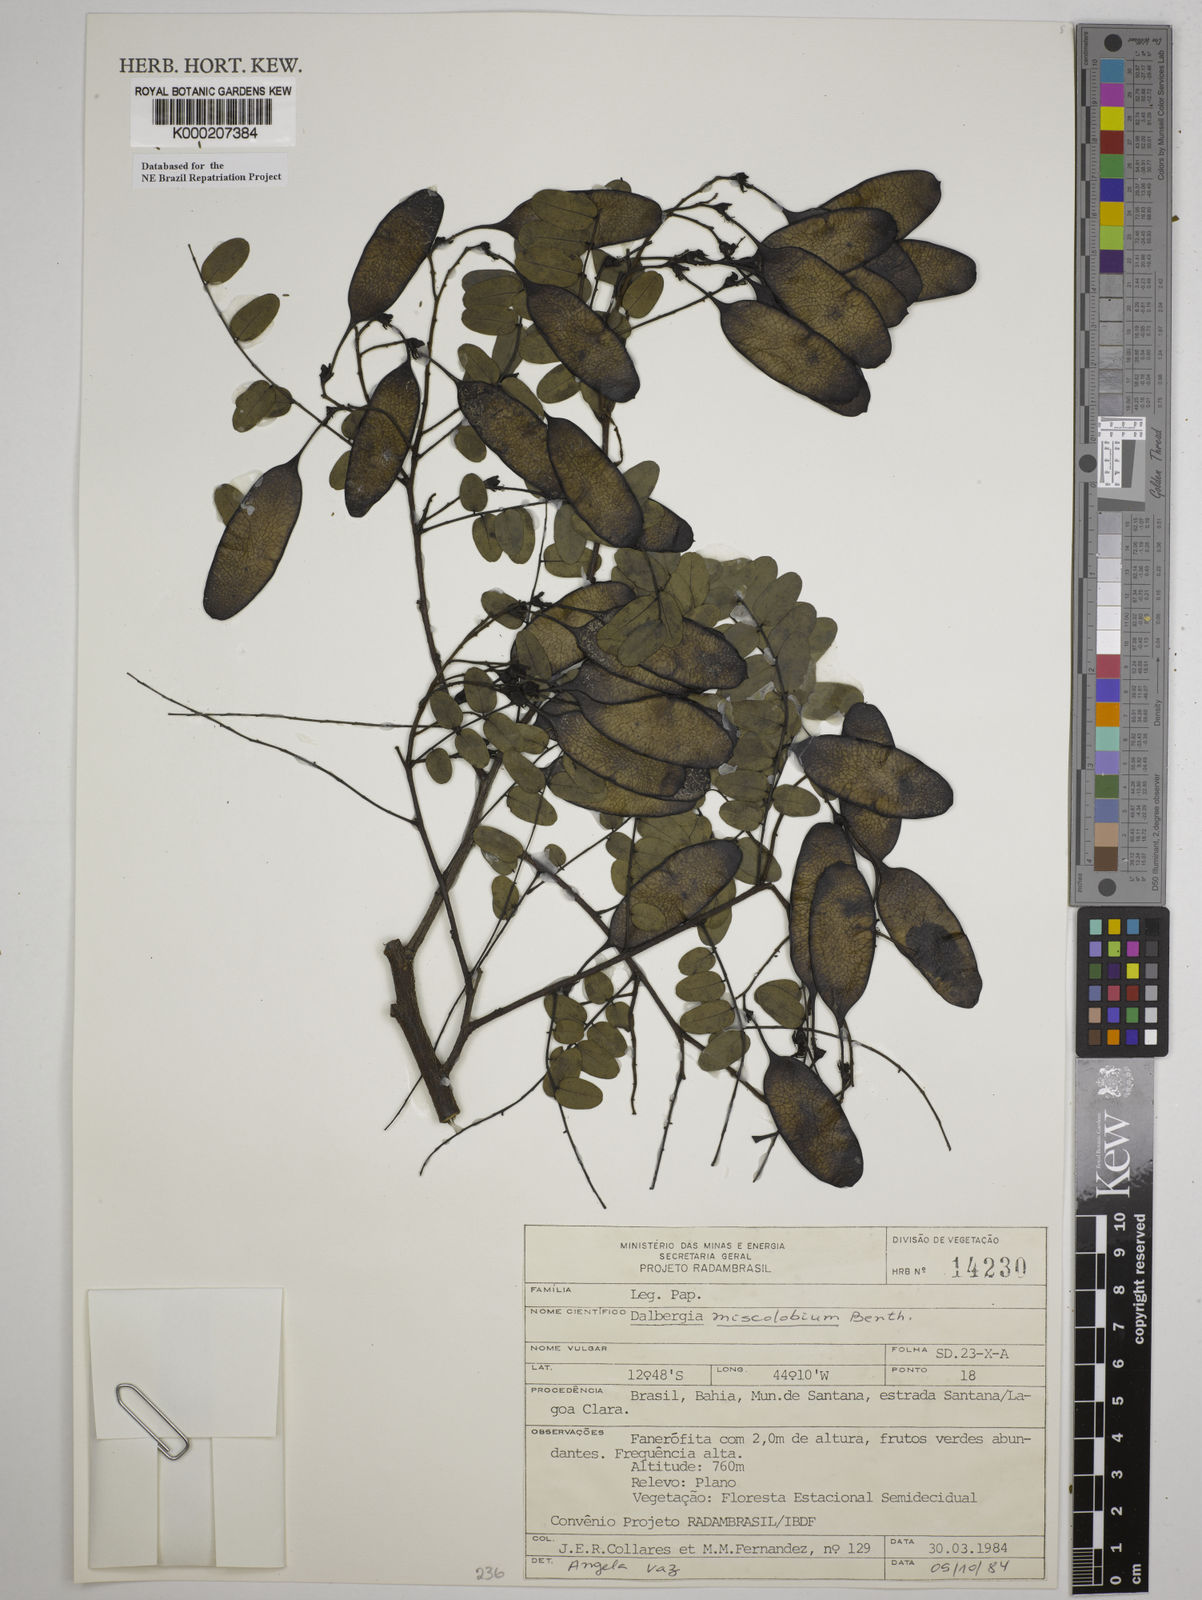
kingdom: Plantae
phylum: Tracheophyta
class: Magnoliopsida
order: Fabales
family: Fabaceae
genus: Dalbergia
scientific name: Dalbergia miscolobium
